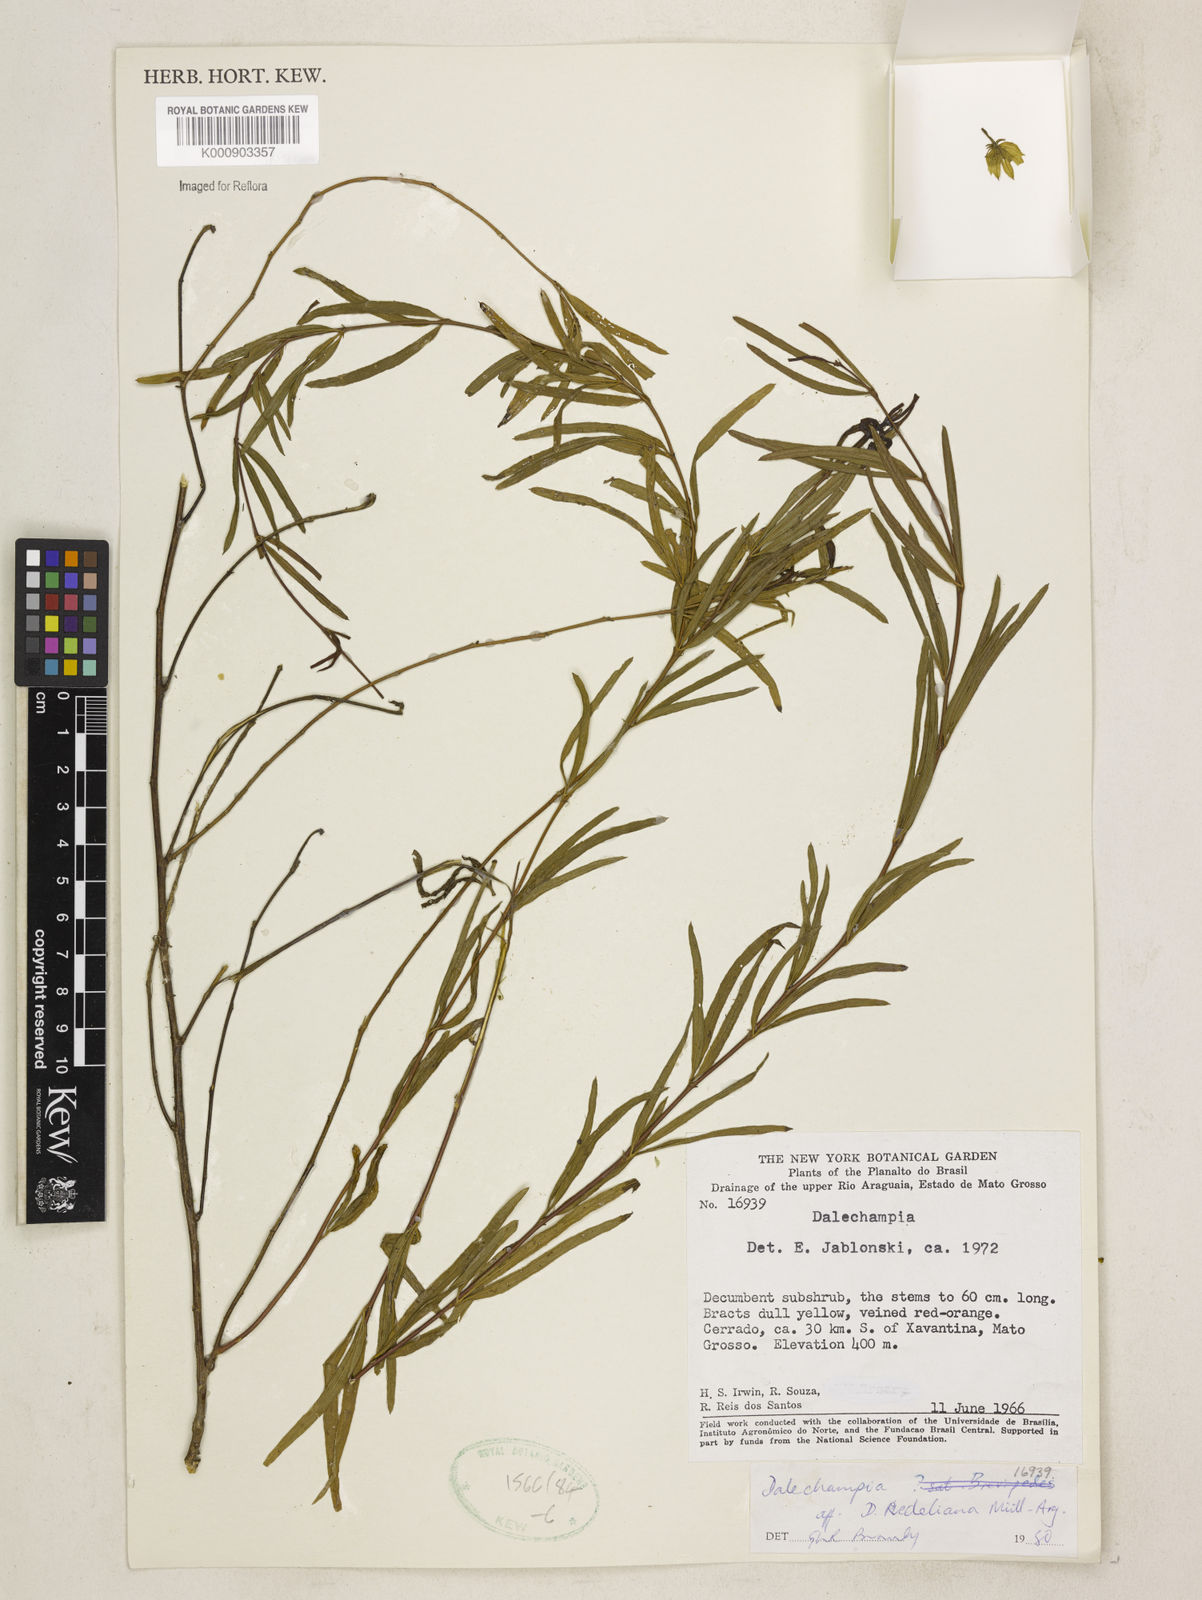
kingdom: Plantae
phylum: Tracheophyta
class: Magnoliopsida
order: Malpighiales
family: Euphorbiaceae
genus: Dalechampia
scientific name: Dalechampia
